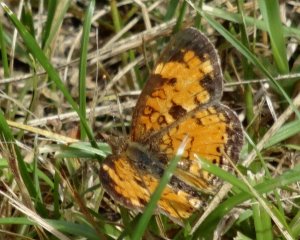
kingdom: Animalia
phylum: Arthropoda
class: Insecta
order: Lepidoptera
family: Nymphalidae
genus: Phyciodes
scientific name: Phyciodes tharos
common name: Northern Crescent
